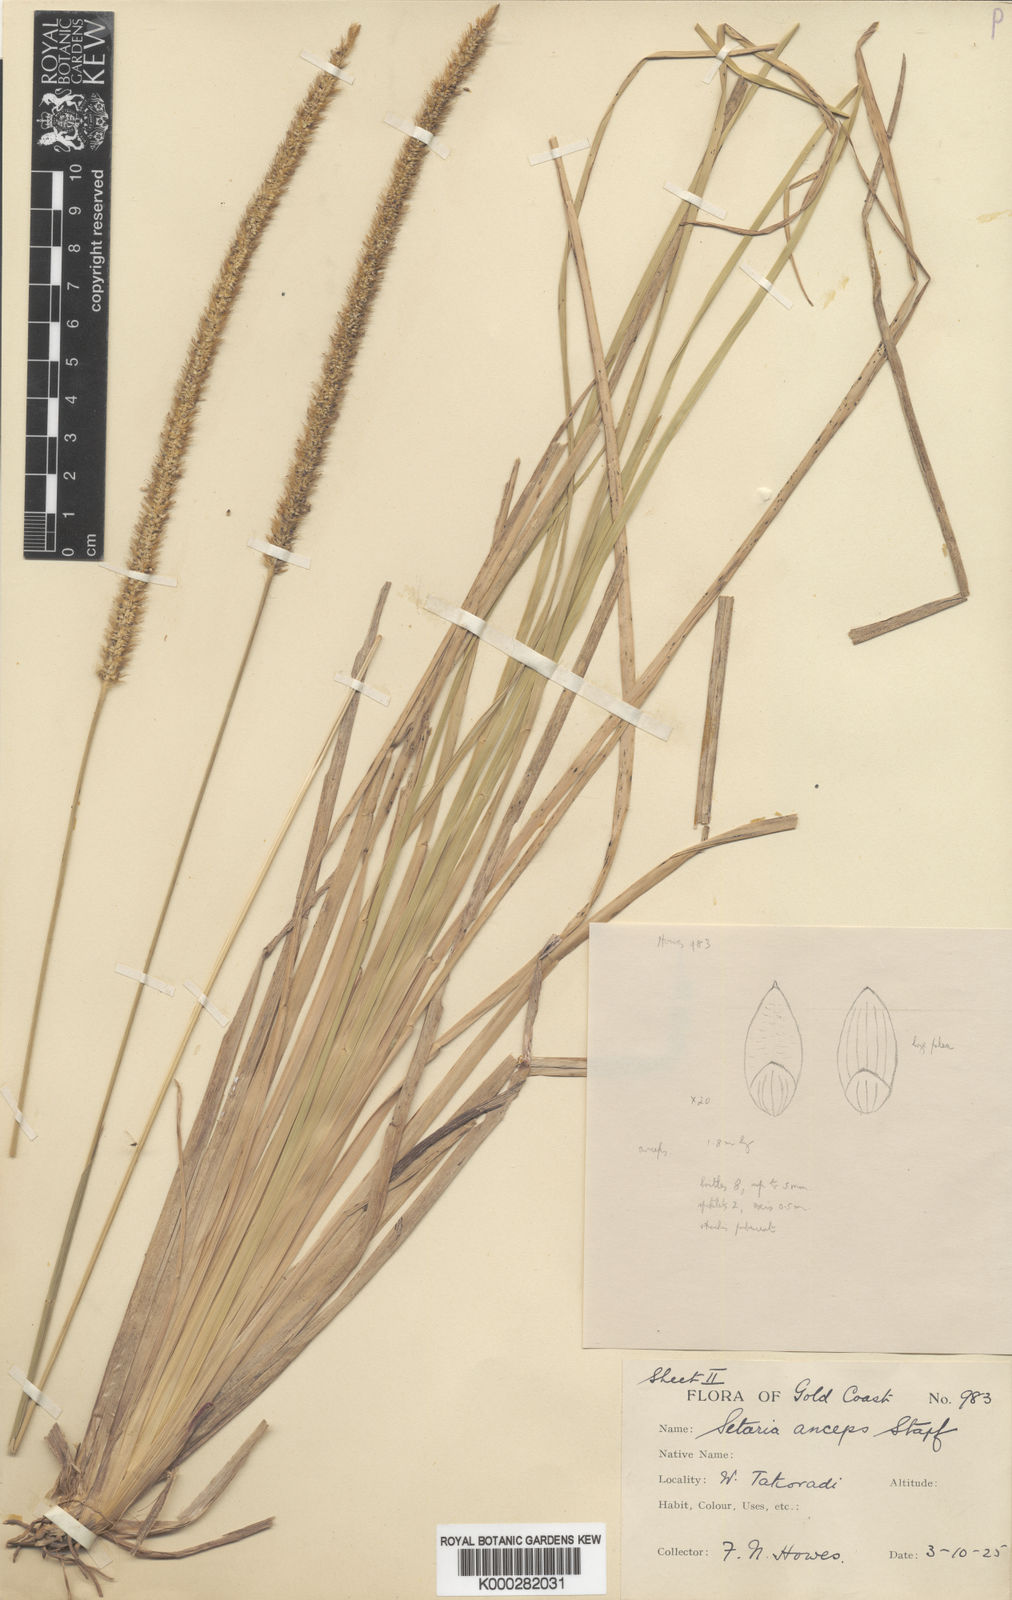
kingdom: Plantae
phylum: Tracheophyta
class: Liliopsida
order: Poales
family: Poaceae
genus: Setaria
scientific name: Setaria sphacelata
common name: African bristlegrass
